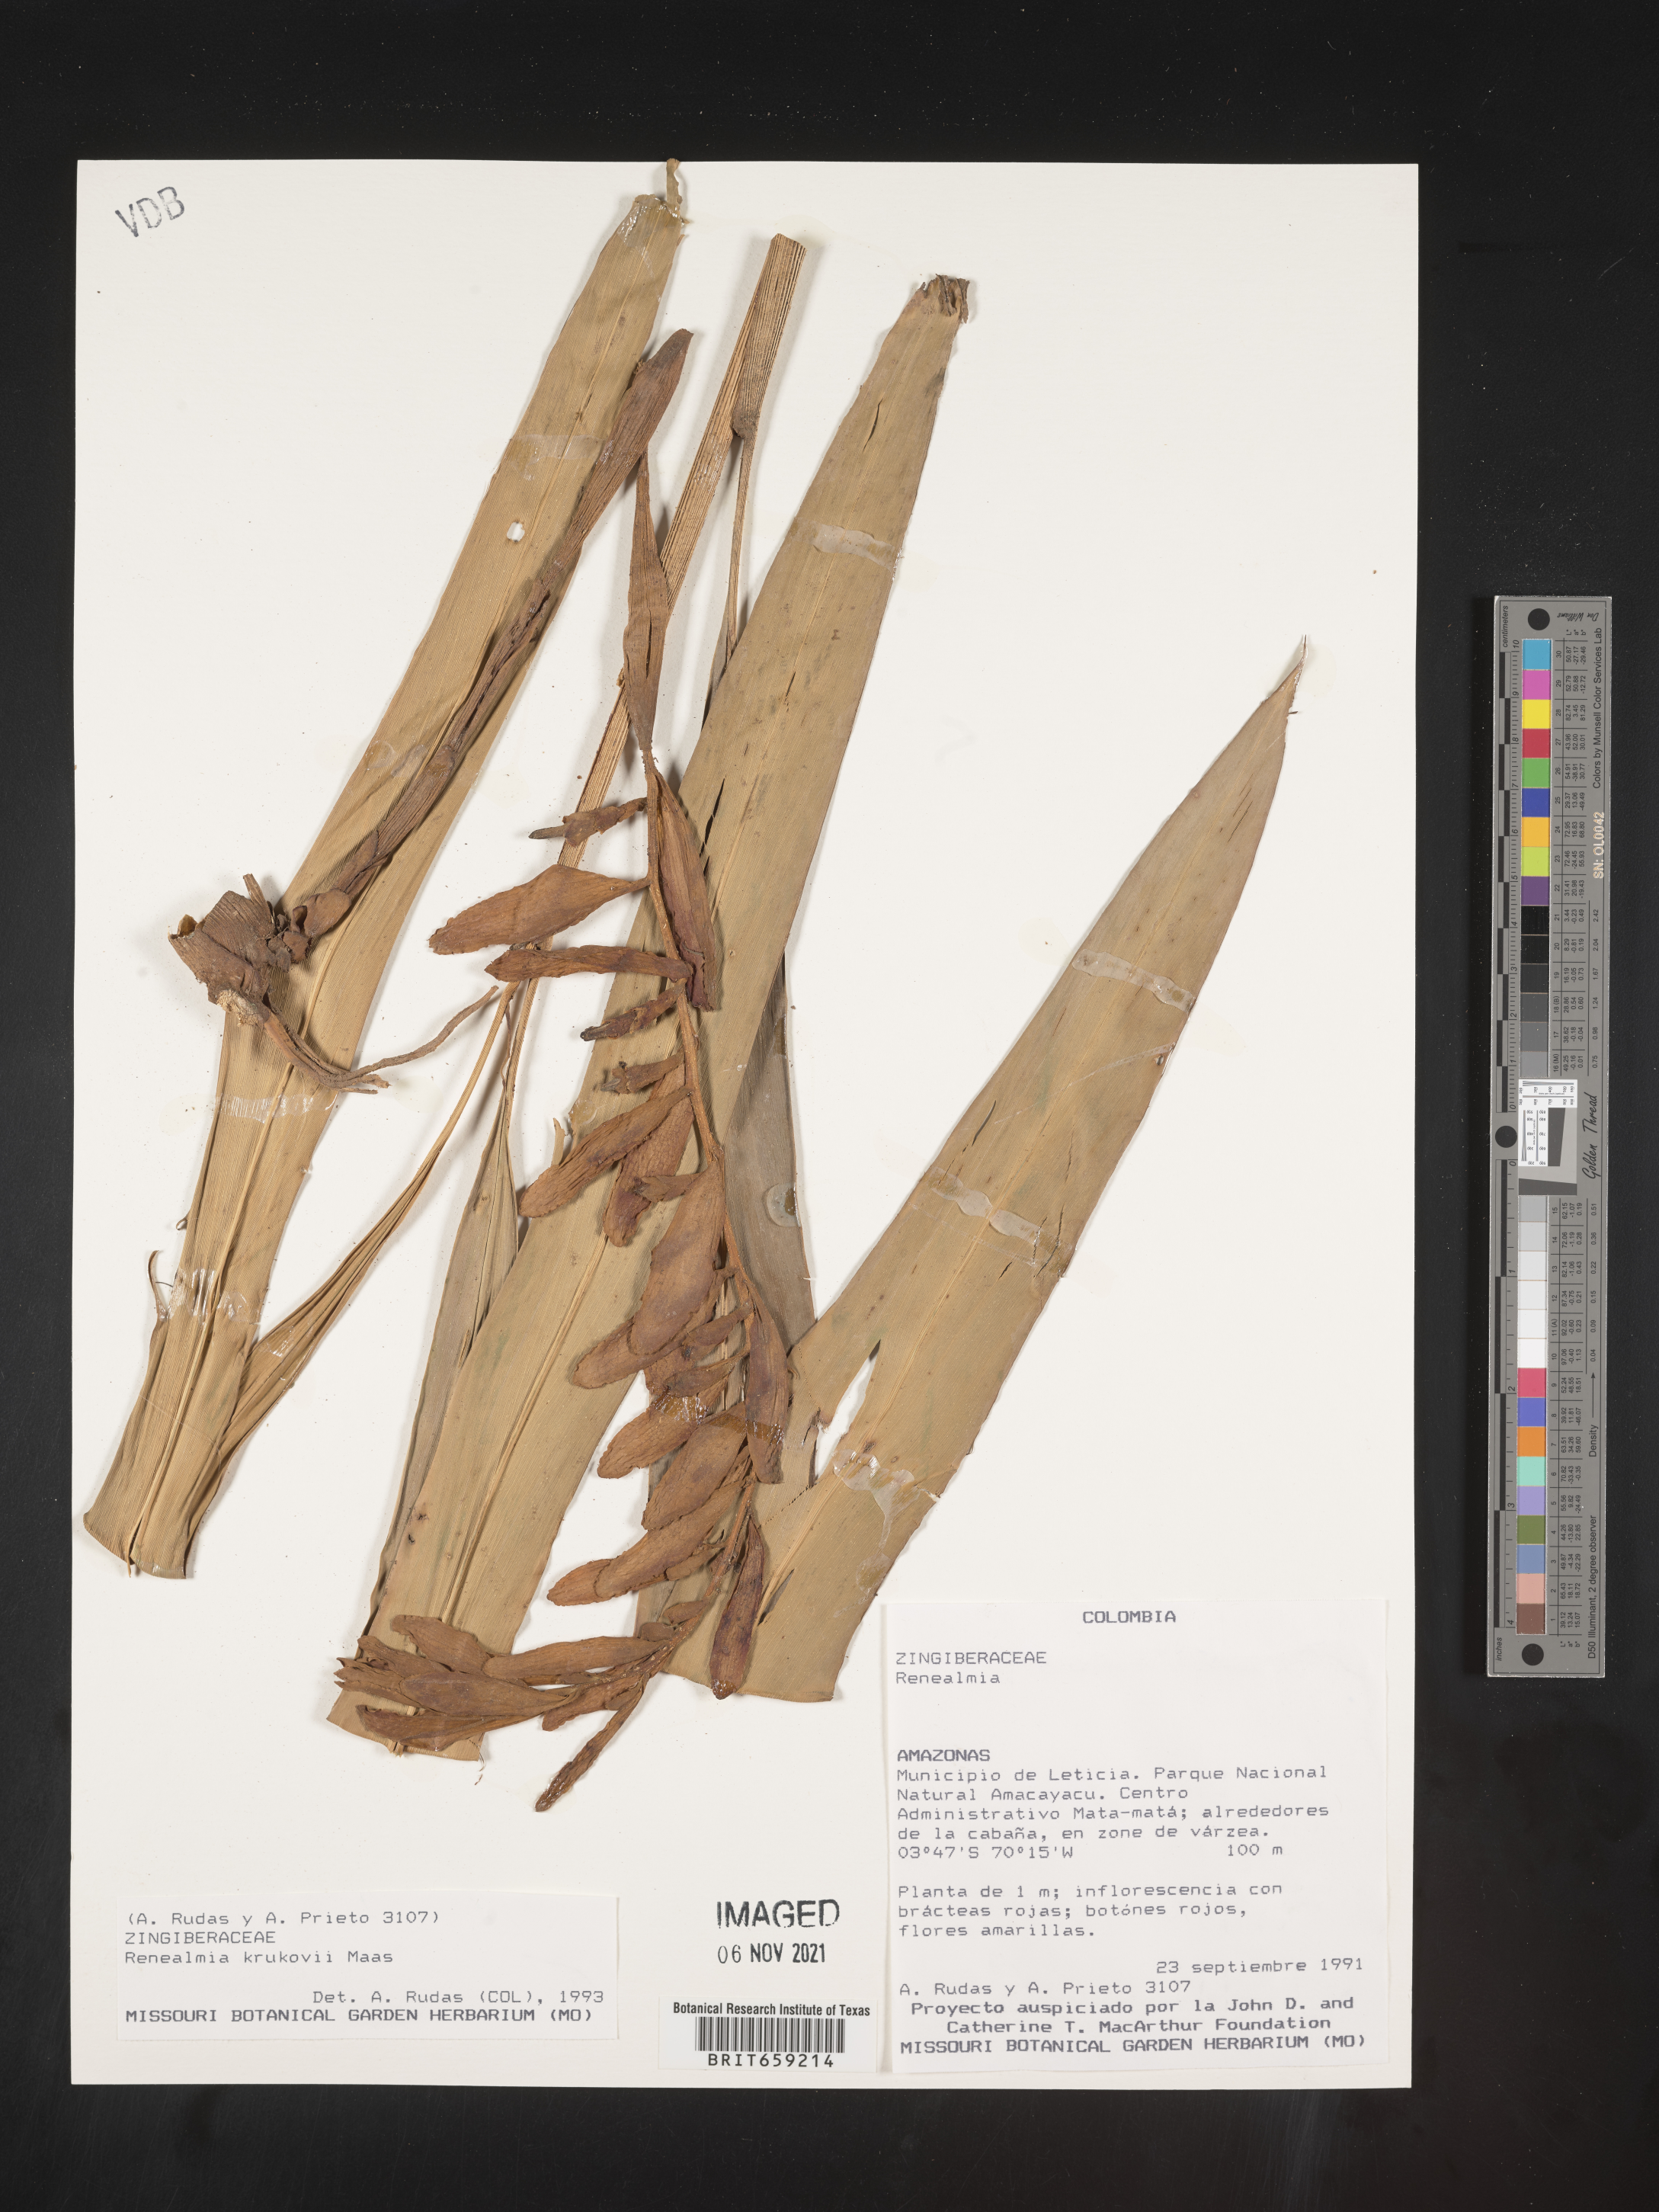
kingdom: Plantae
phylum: Tracheophyta
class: Liliopsida
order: Zingiberales
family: Zingiberaceae
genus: Renealmia
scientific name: Renealmia
